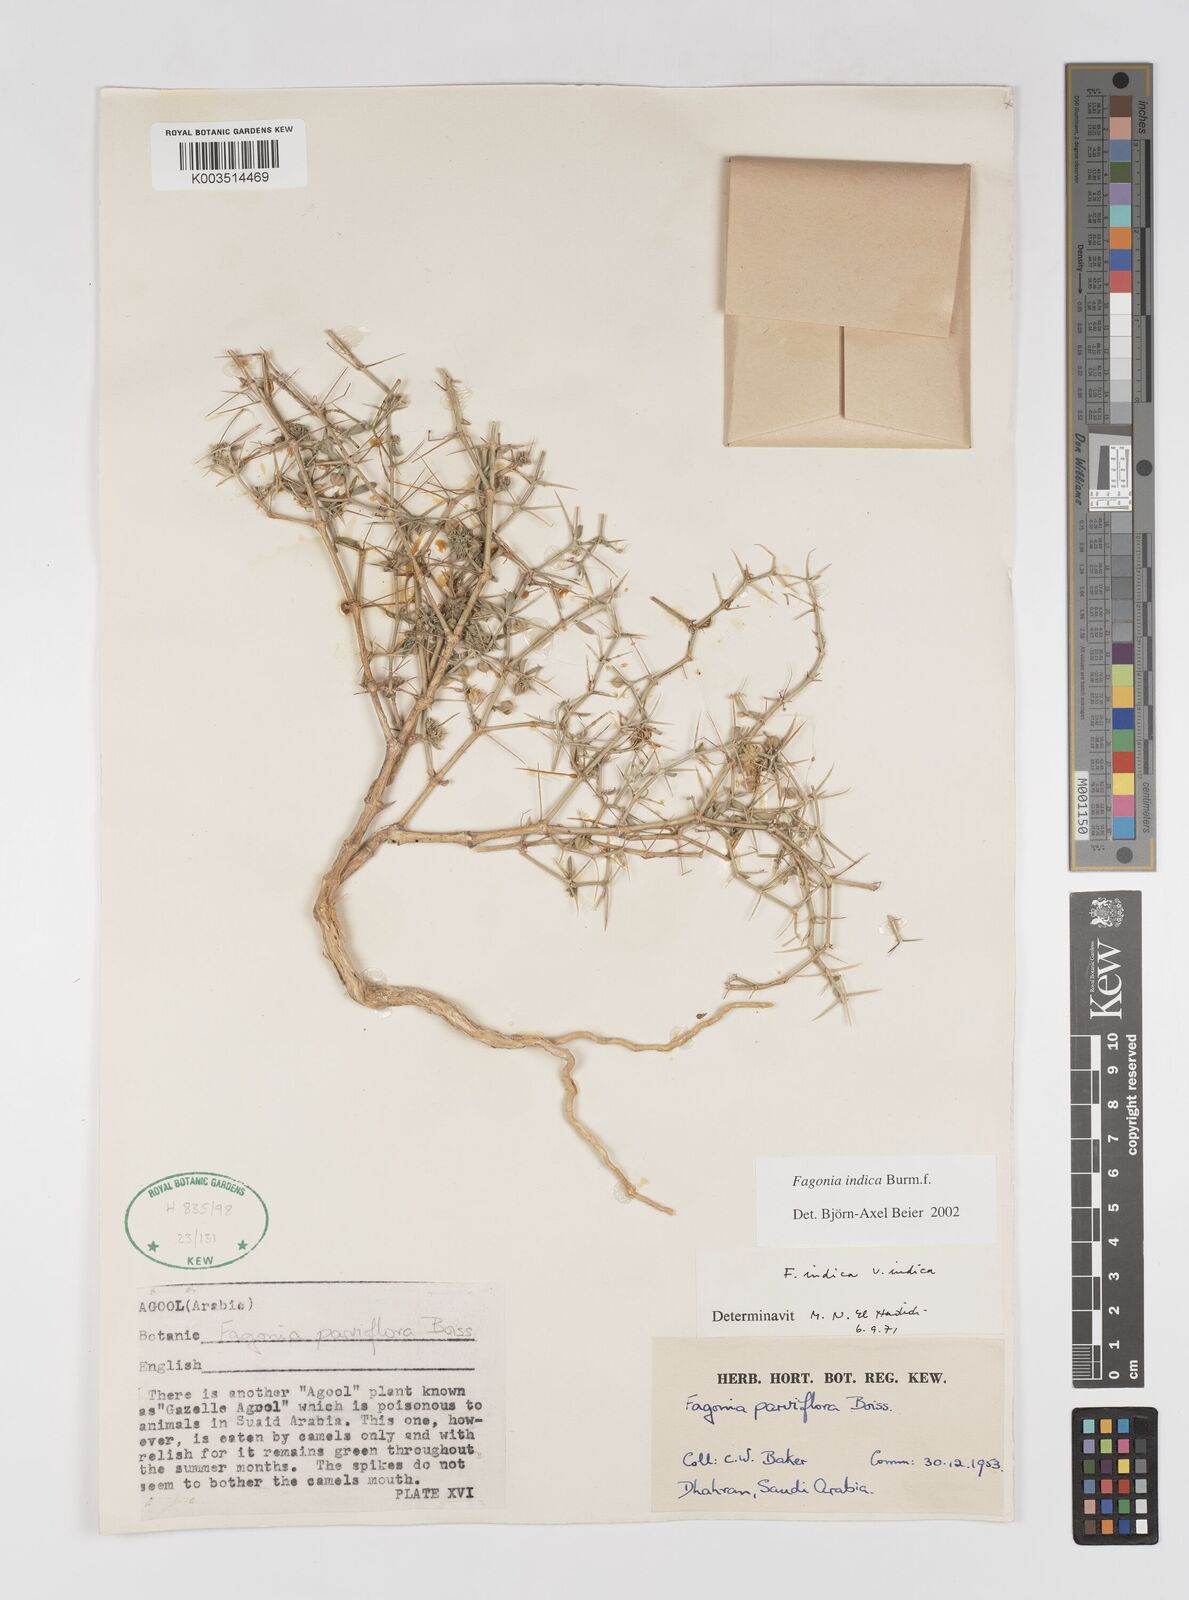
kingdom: Plantae
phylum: Tracheophyta
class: Magnoliopsida
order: Zygophyllales
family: Zygophyllaceae
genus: Fagonia
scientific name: Fagonia indica
